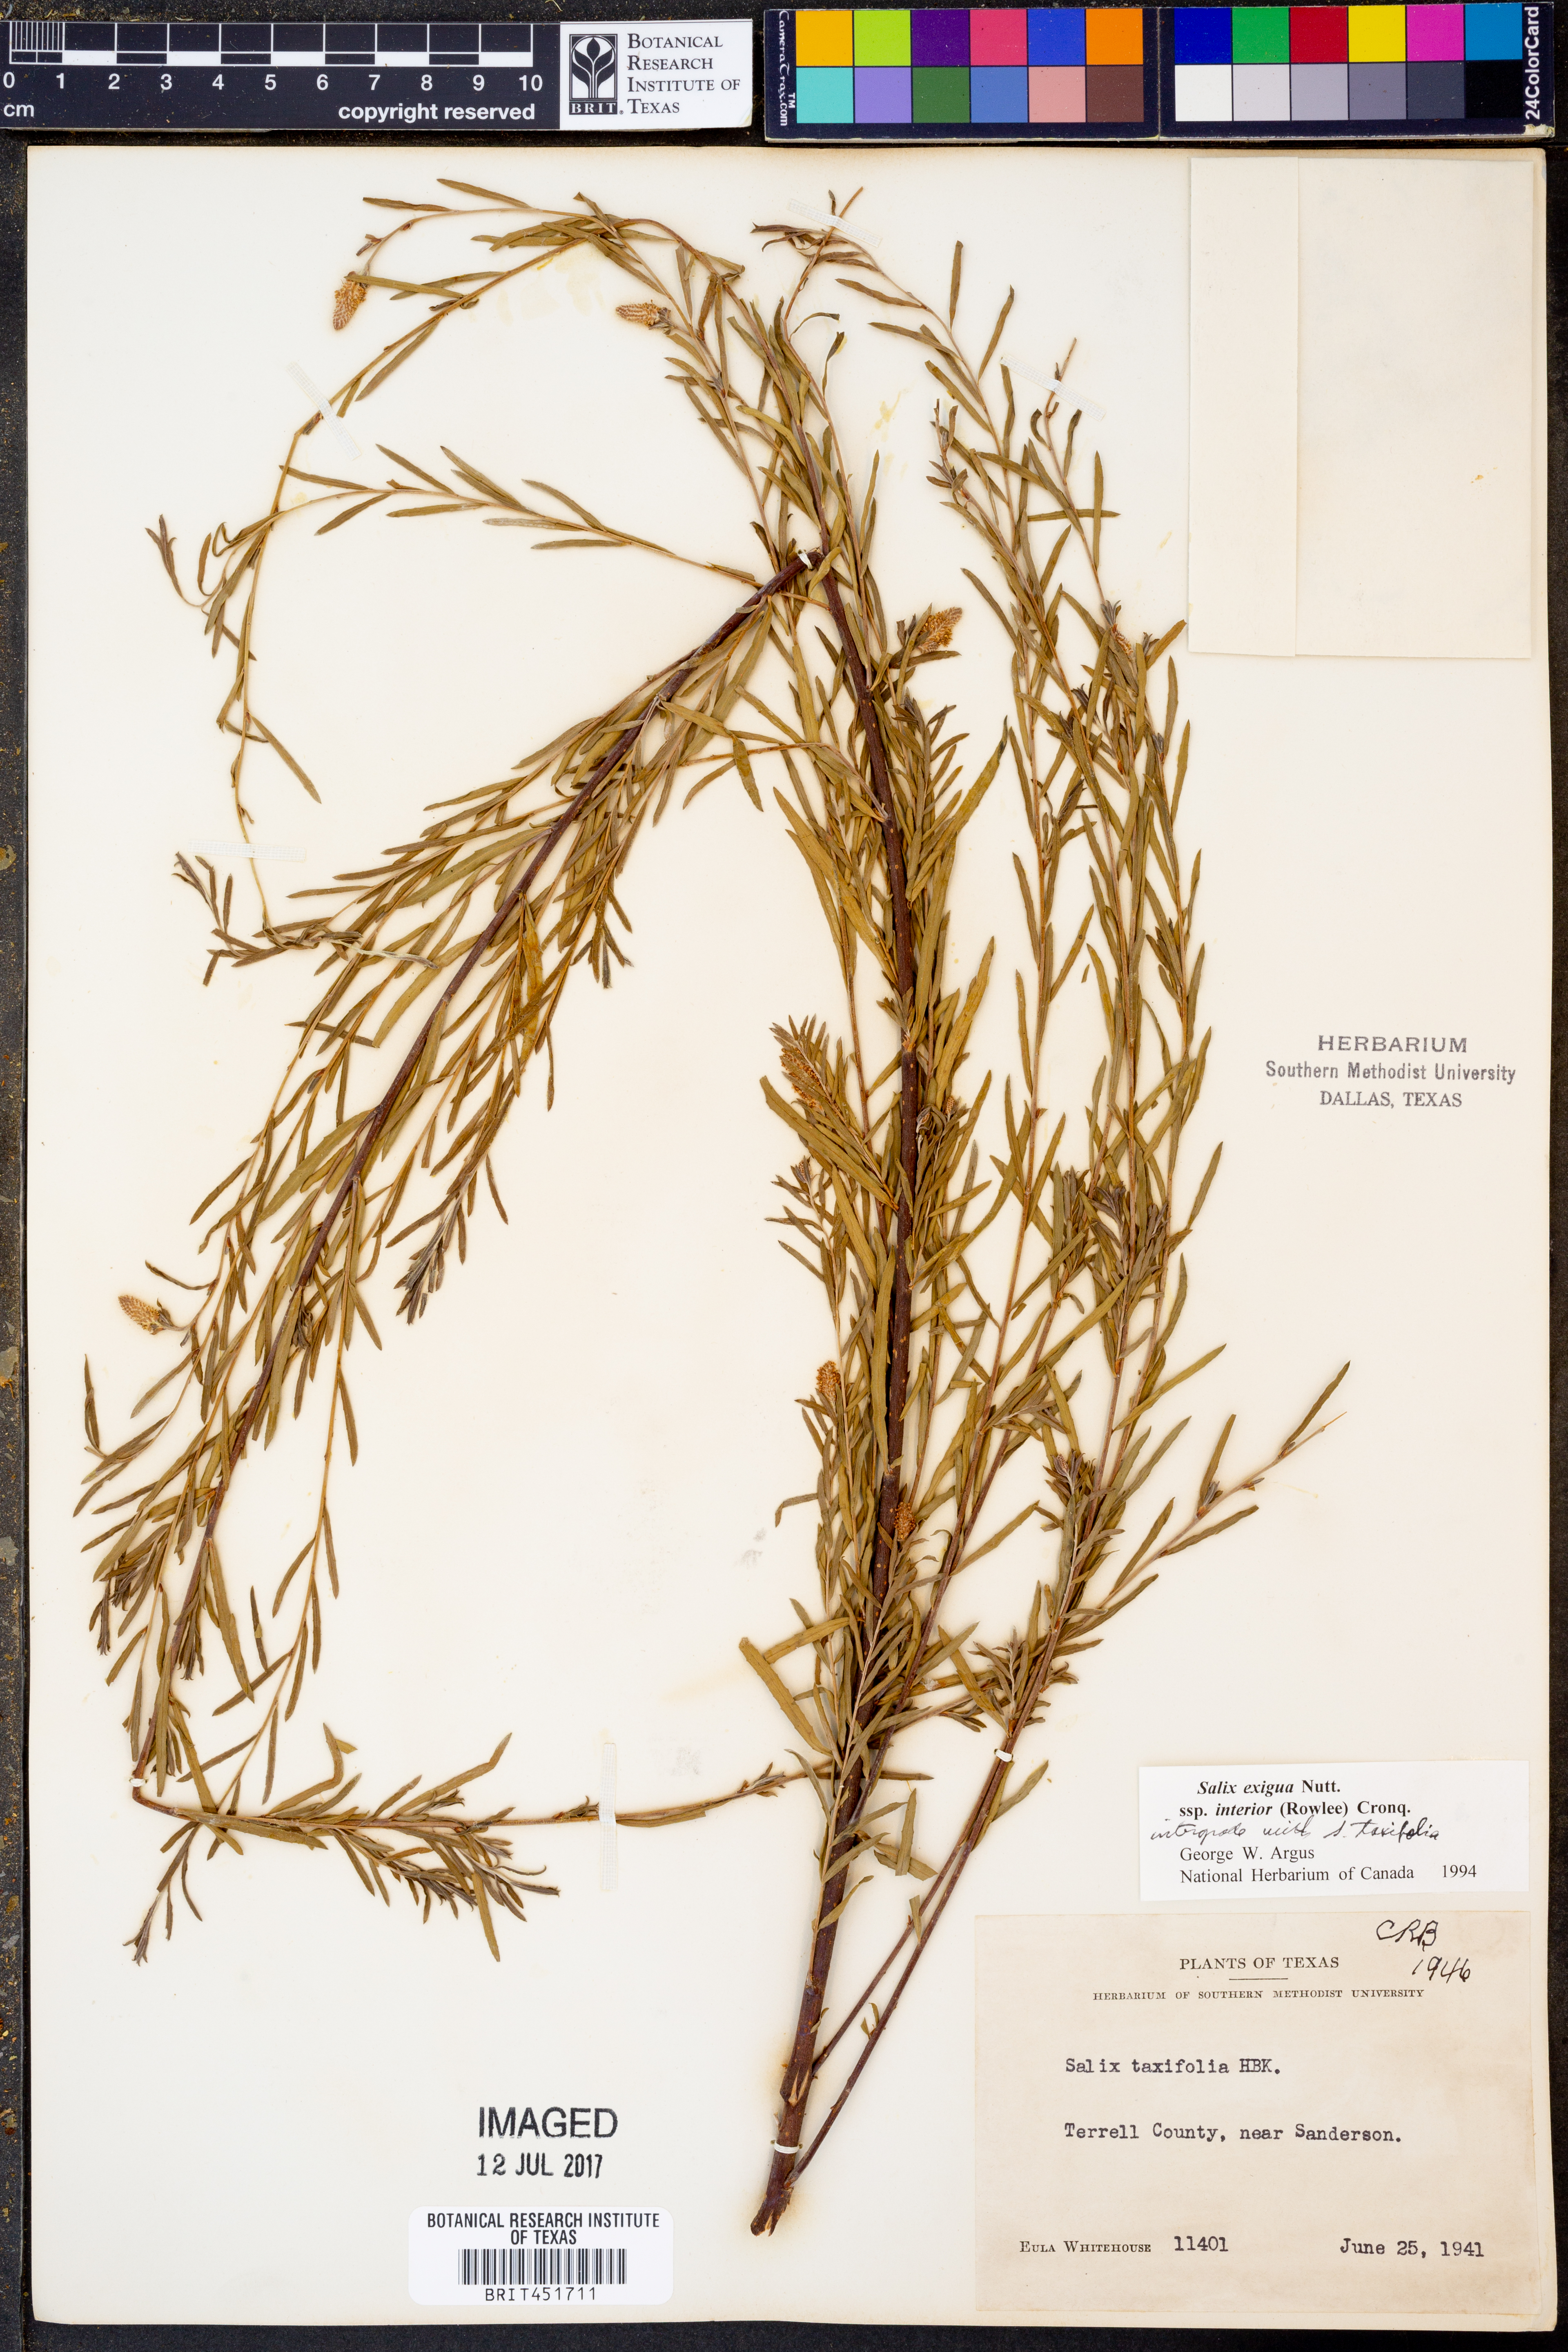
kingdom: Plantae
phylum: Tracheophyta
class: Magnoliopsida
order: Malpighiales
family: Salicaceae
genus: Salix
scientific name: Salix interior
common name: Sandbar willow
